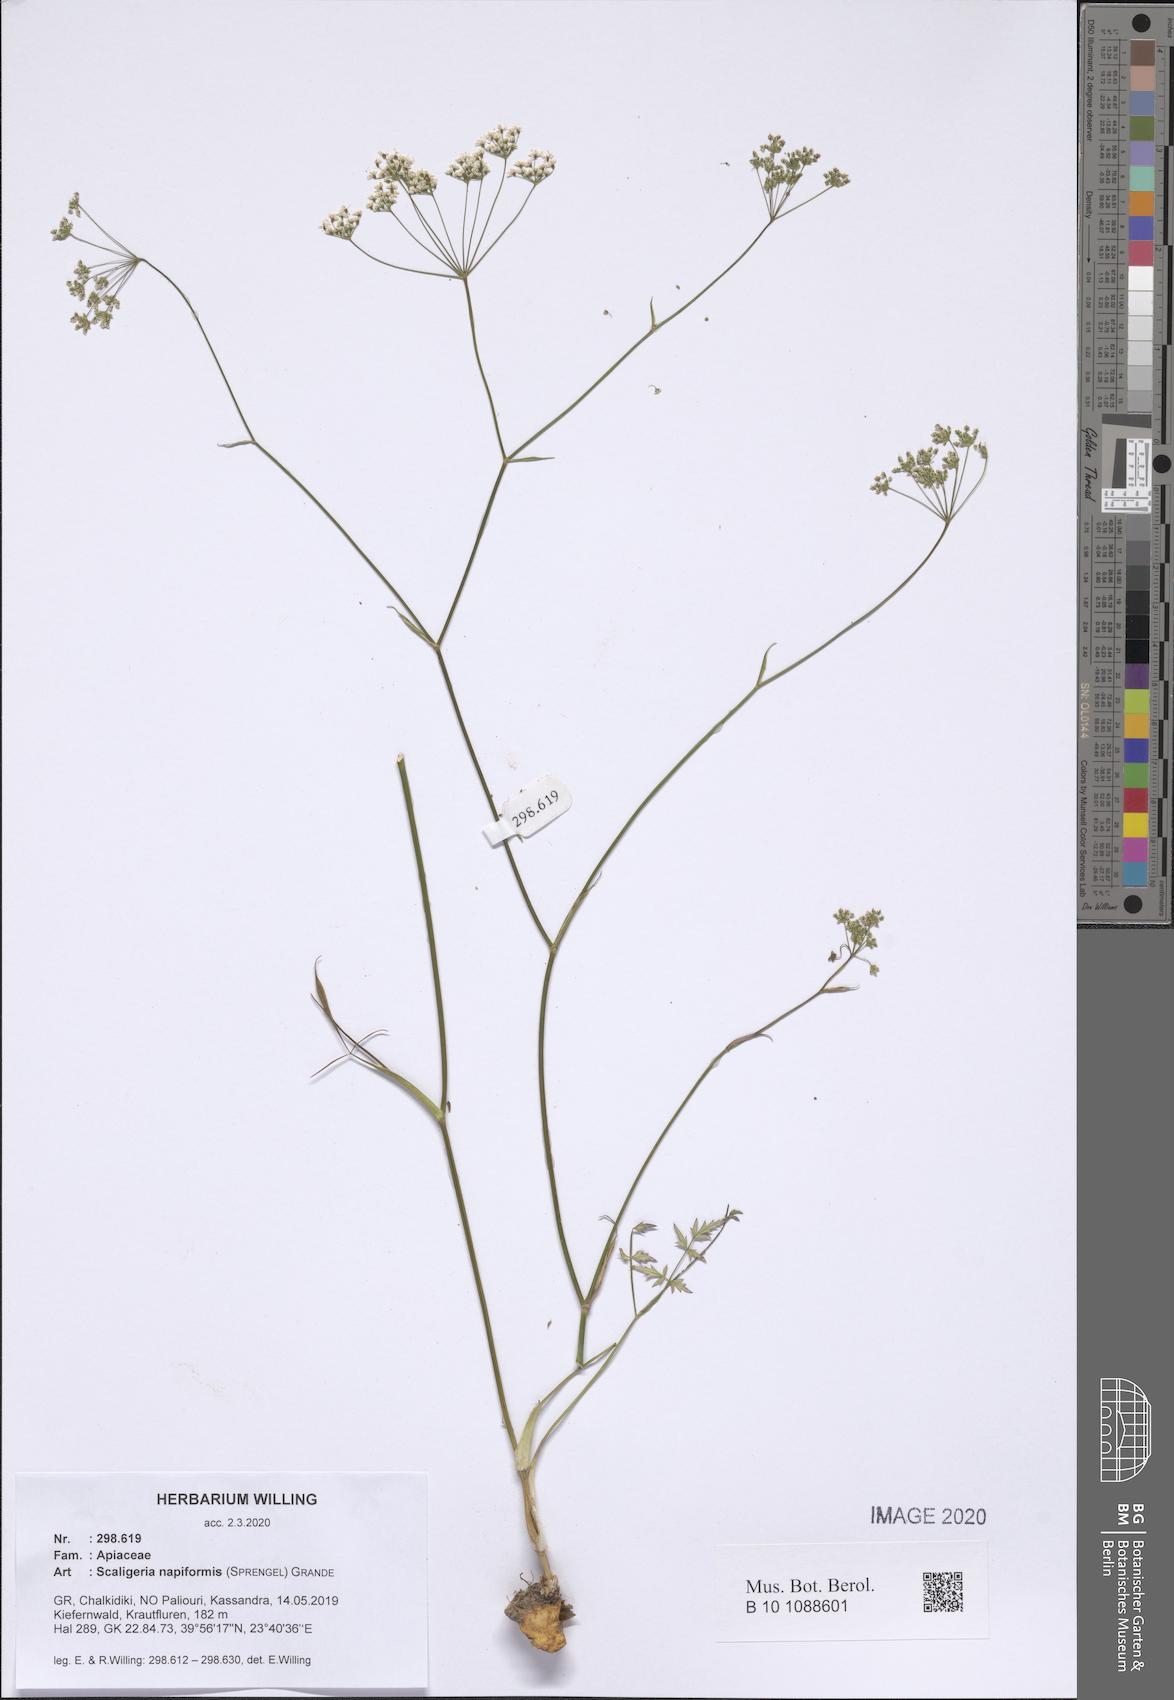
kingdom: Plantae
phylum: Tracheophyta
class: Magnoliopsida
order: Apiales
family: Apiaceae
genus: Scaligeria
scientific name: Scaligeria napiformis
